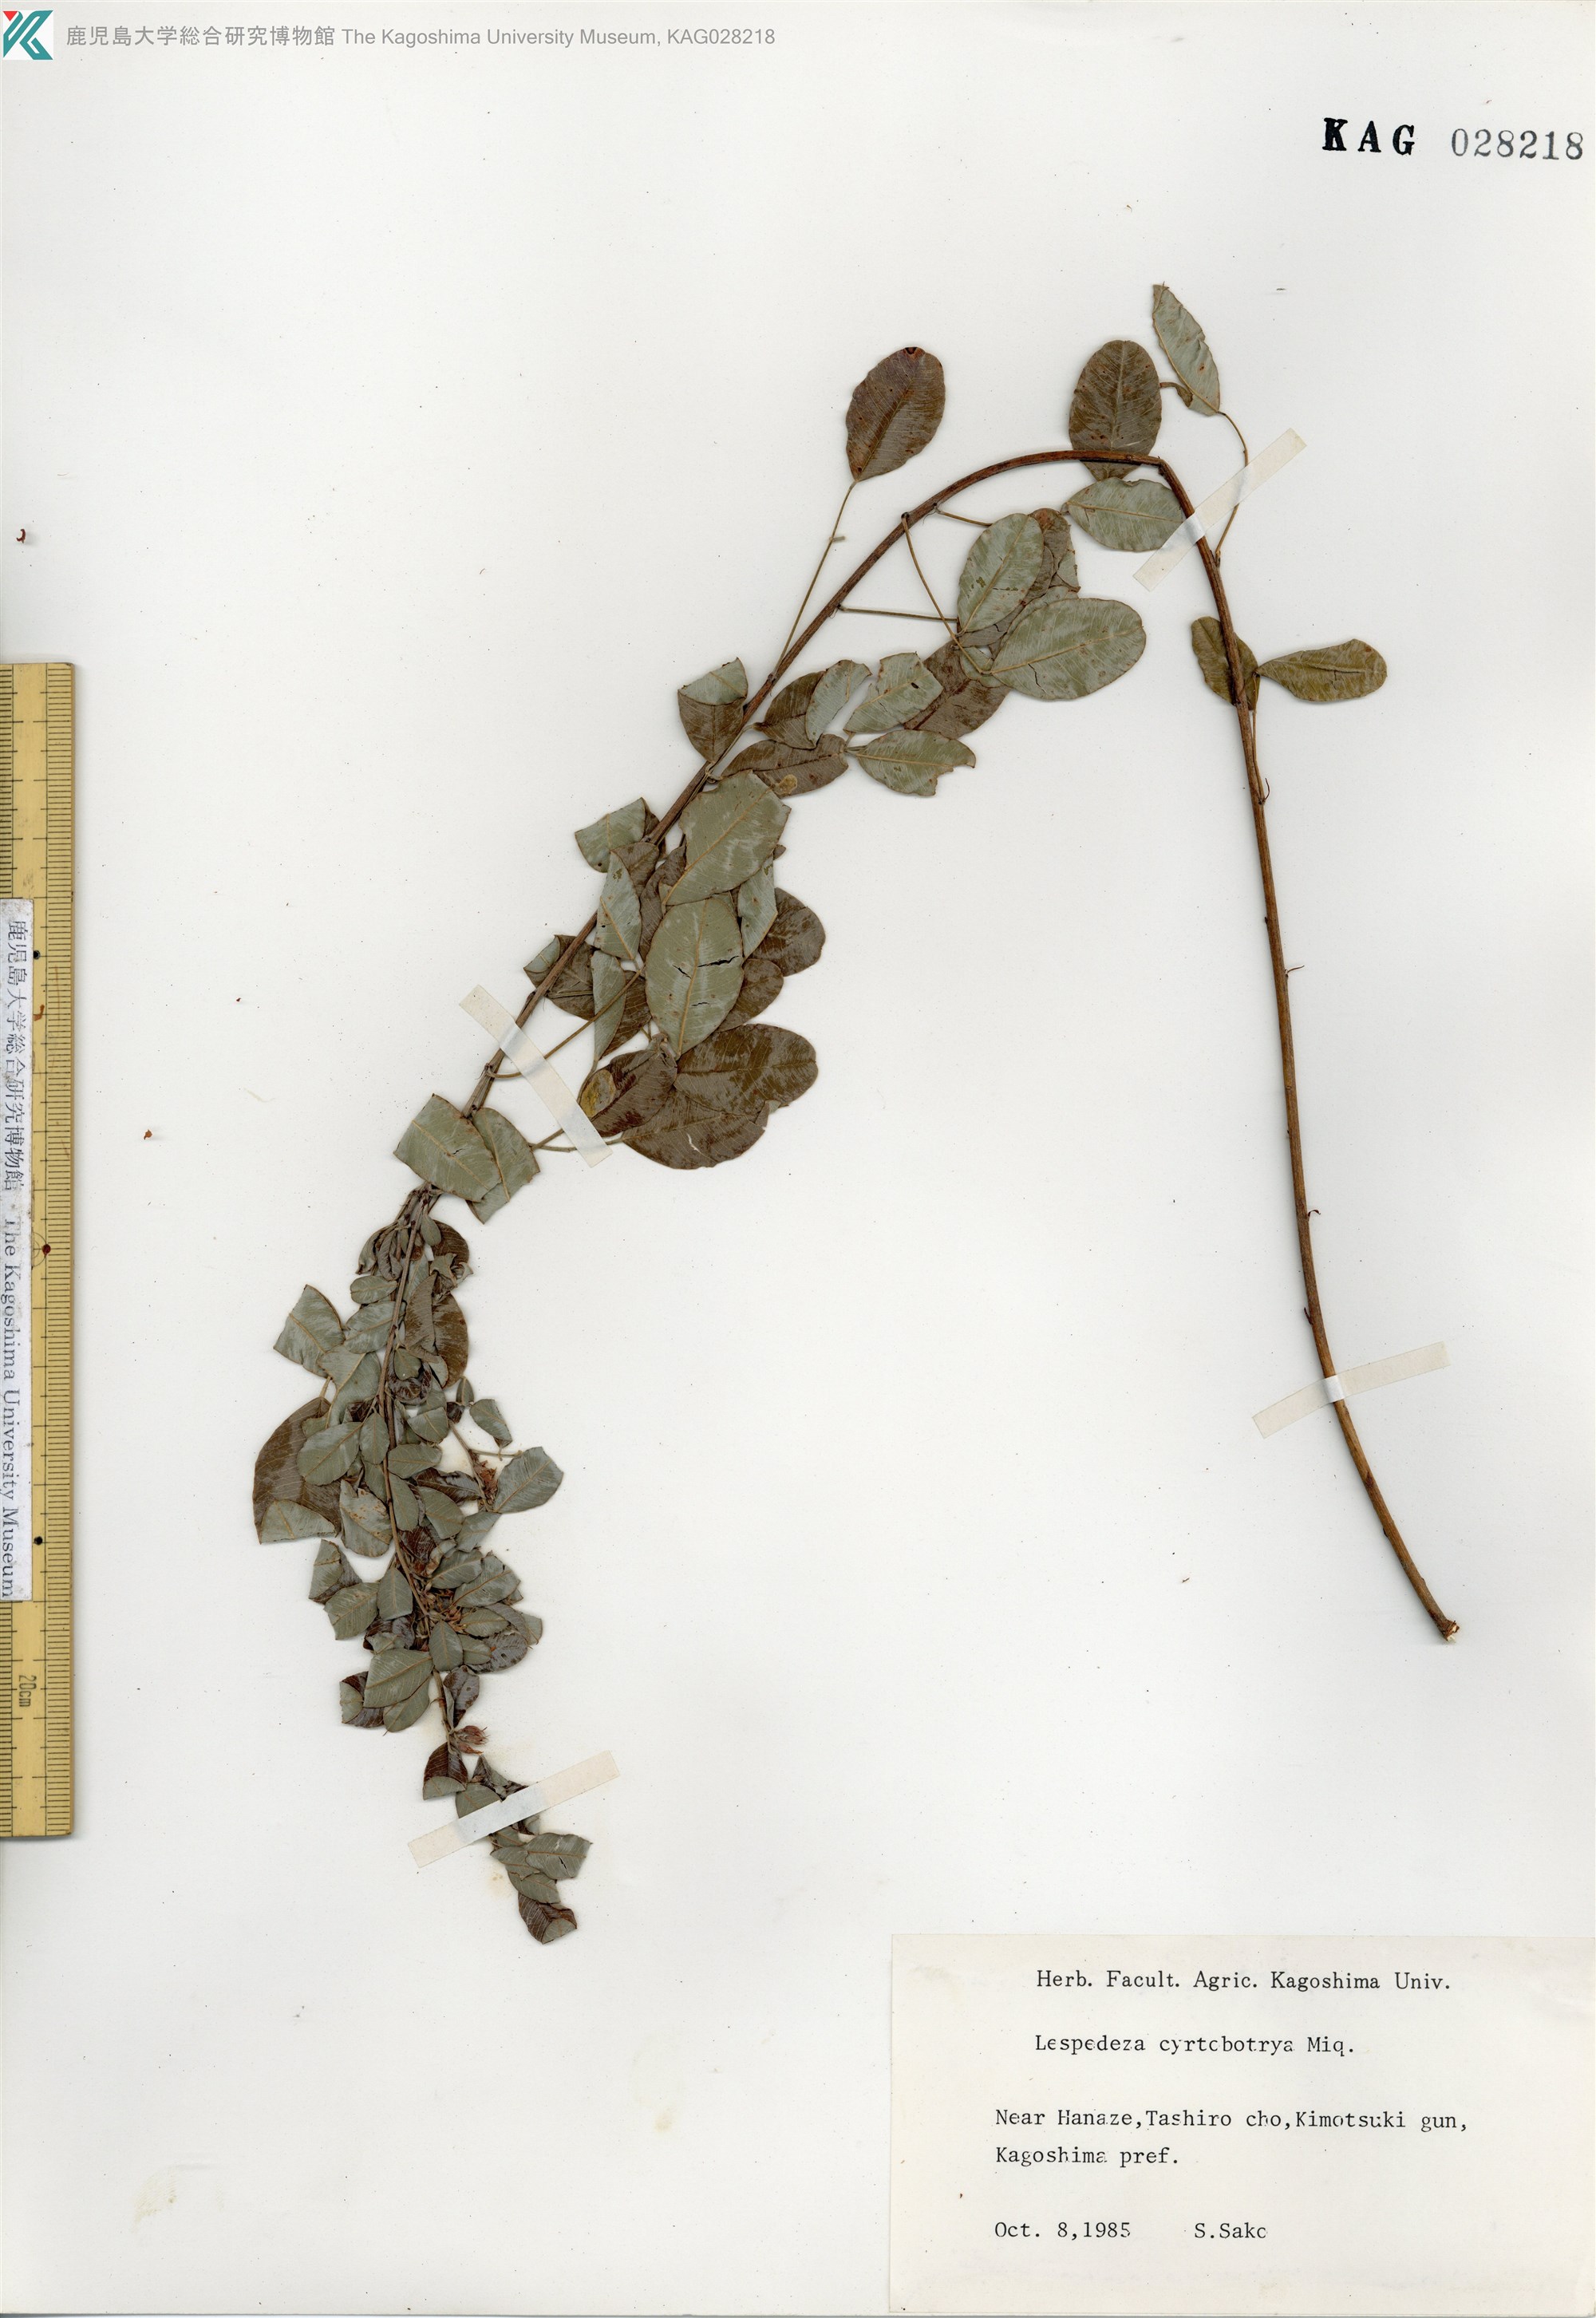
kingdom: Plantae
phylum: Tracheophyta
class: Magnoliopsida
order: Fabales
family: Fabaceae
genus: Lespedeza
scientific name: Lespedeza cyrtobotrya
